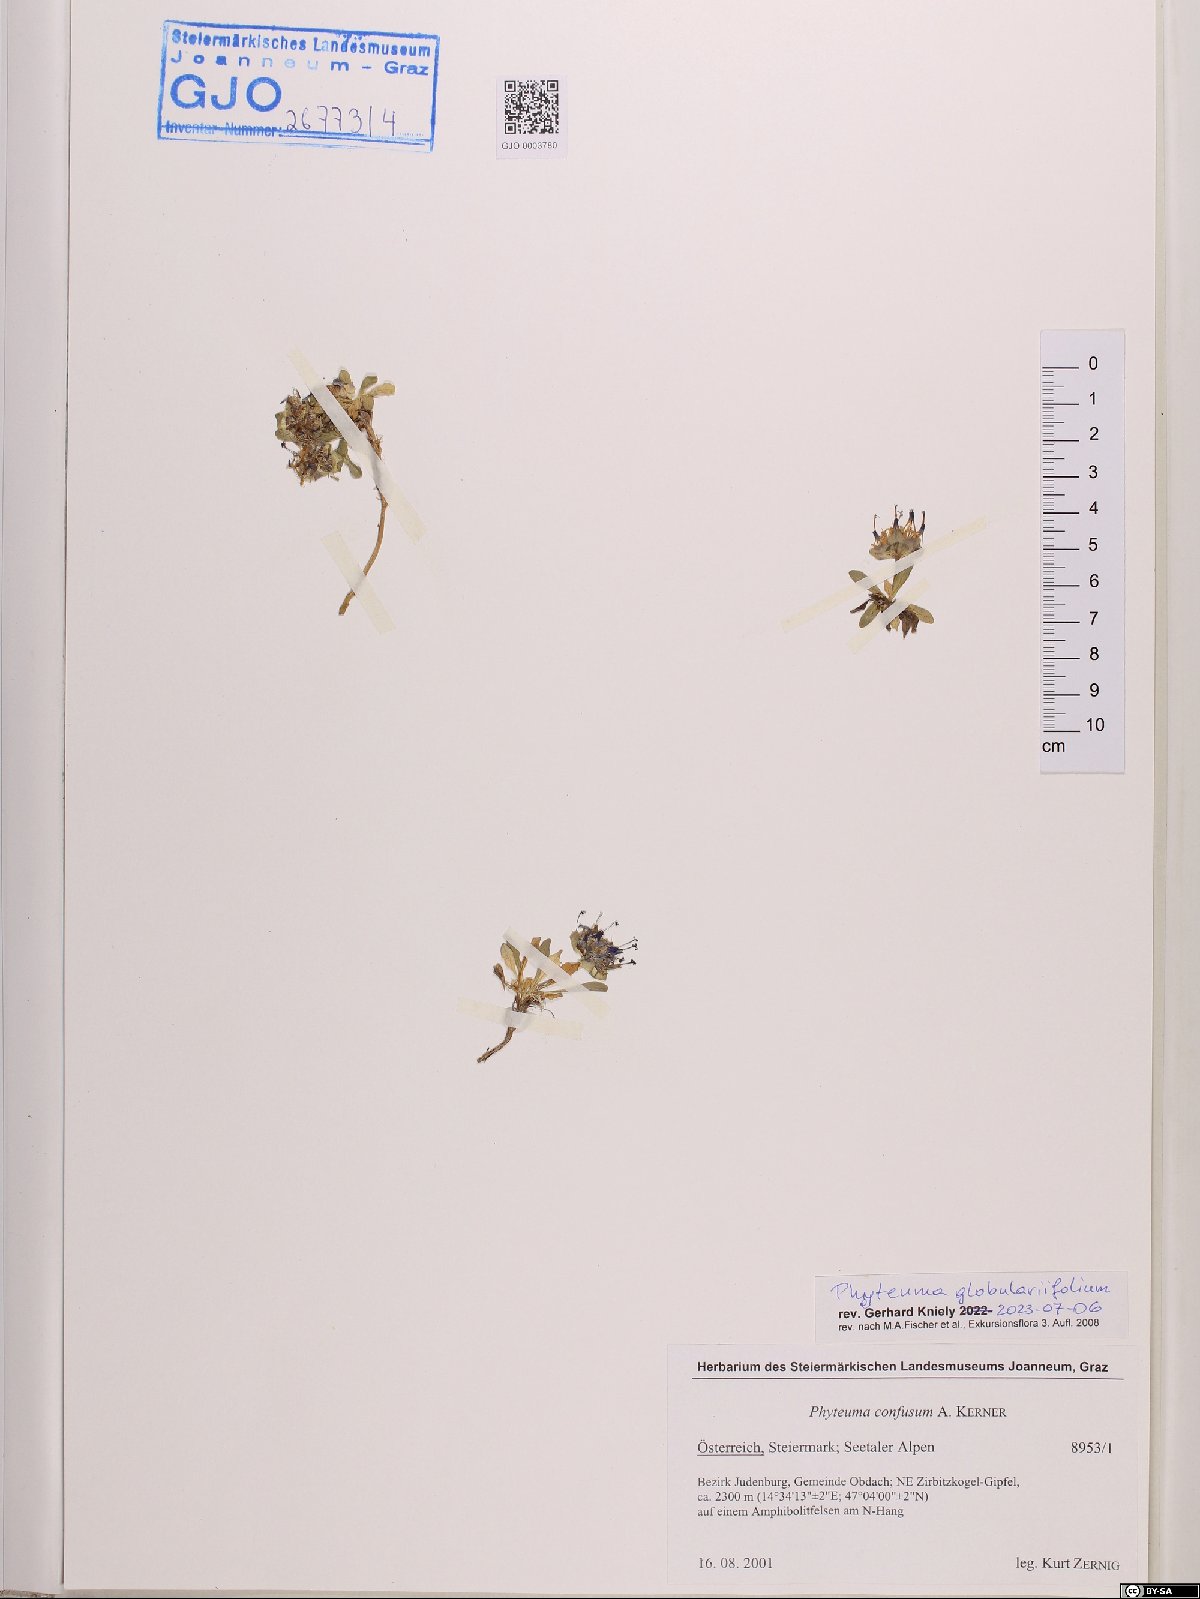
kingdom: Plantae
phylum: Tracheophyta
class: Magnoliopsida
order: Asterales
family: Campanulaceae
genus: Phyteuma
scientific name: Phyteuma globulariifolium
